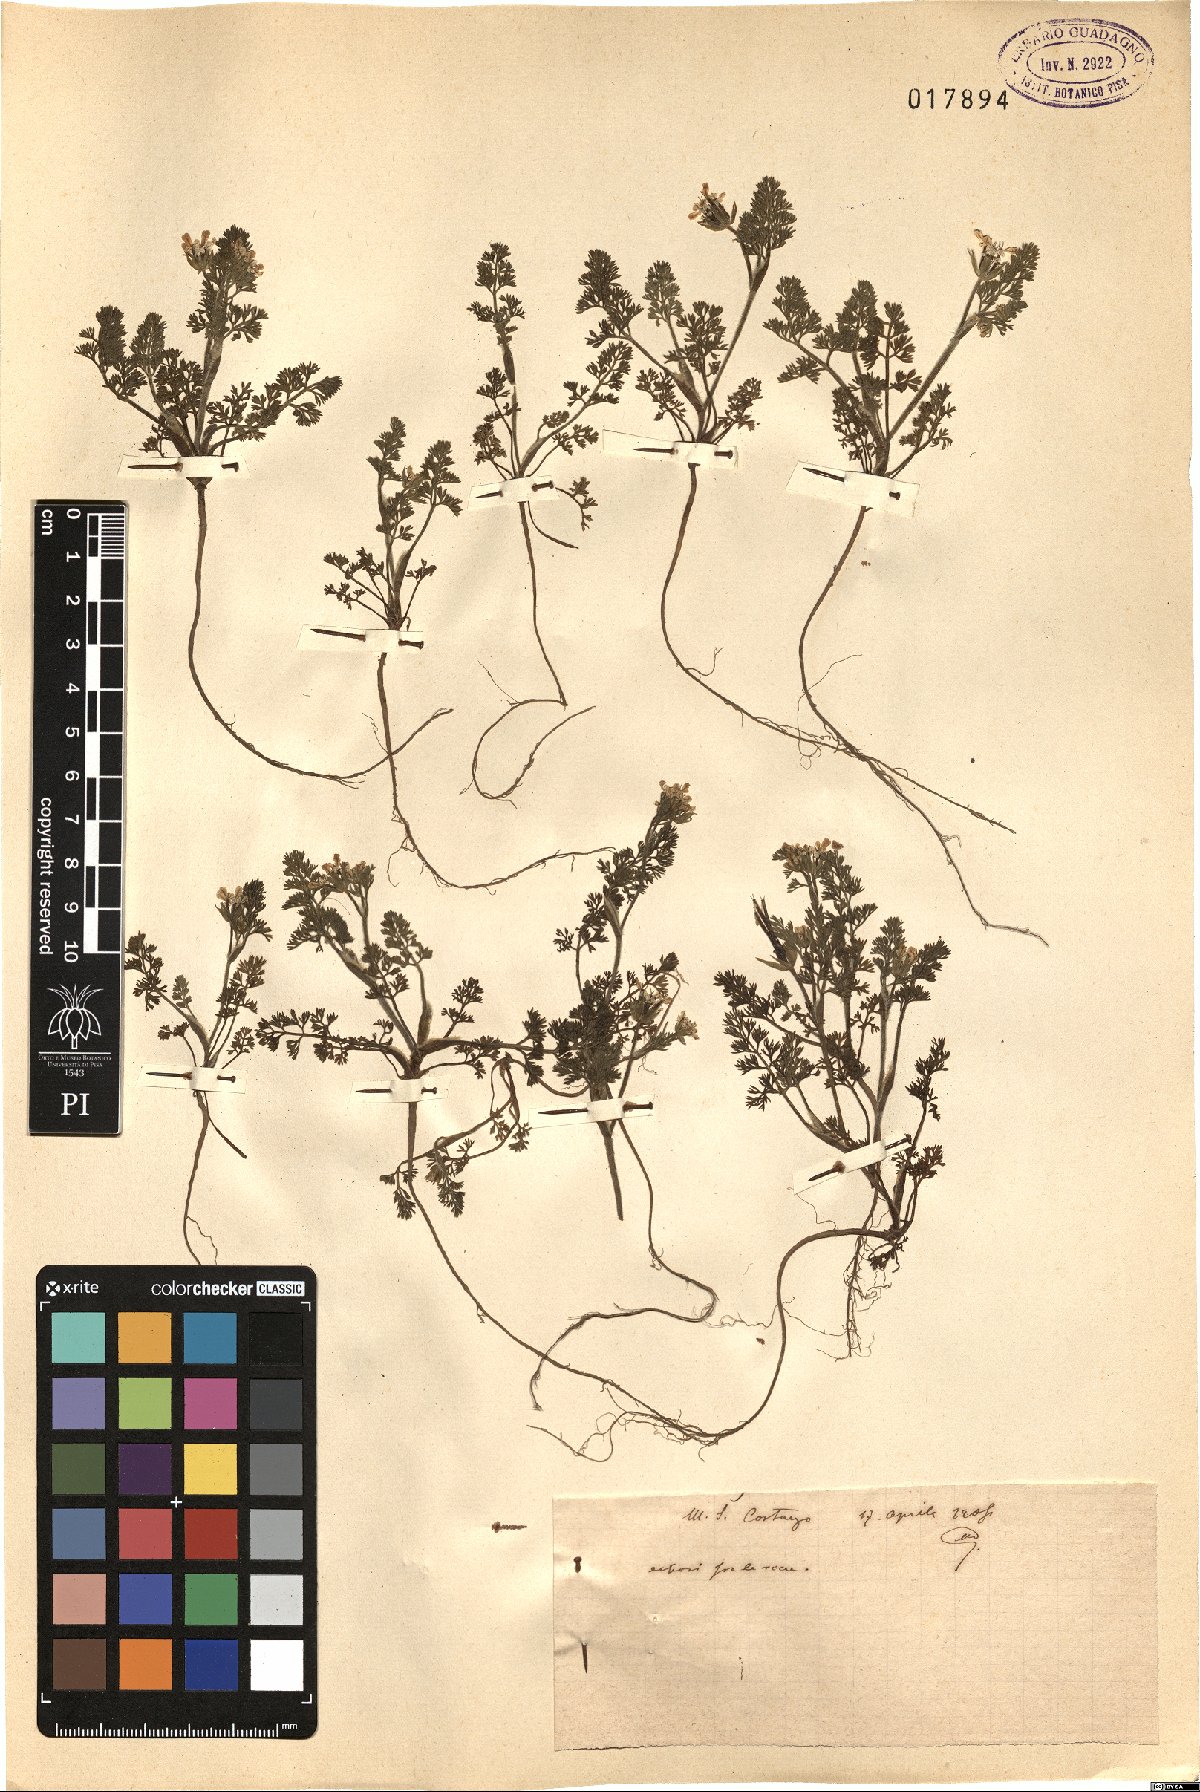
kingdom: Plantae
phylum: Tracheophyta
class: Magnoliopsida
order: Apiales
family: Apiaceae
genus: Scandix
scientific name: Scandix
